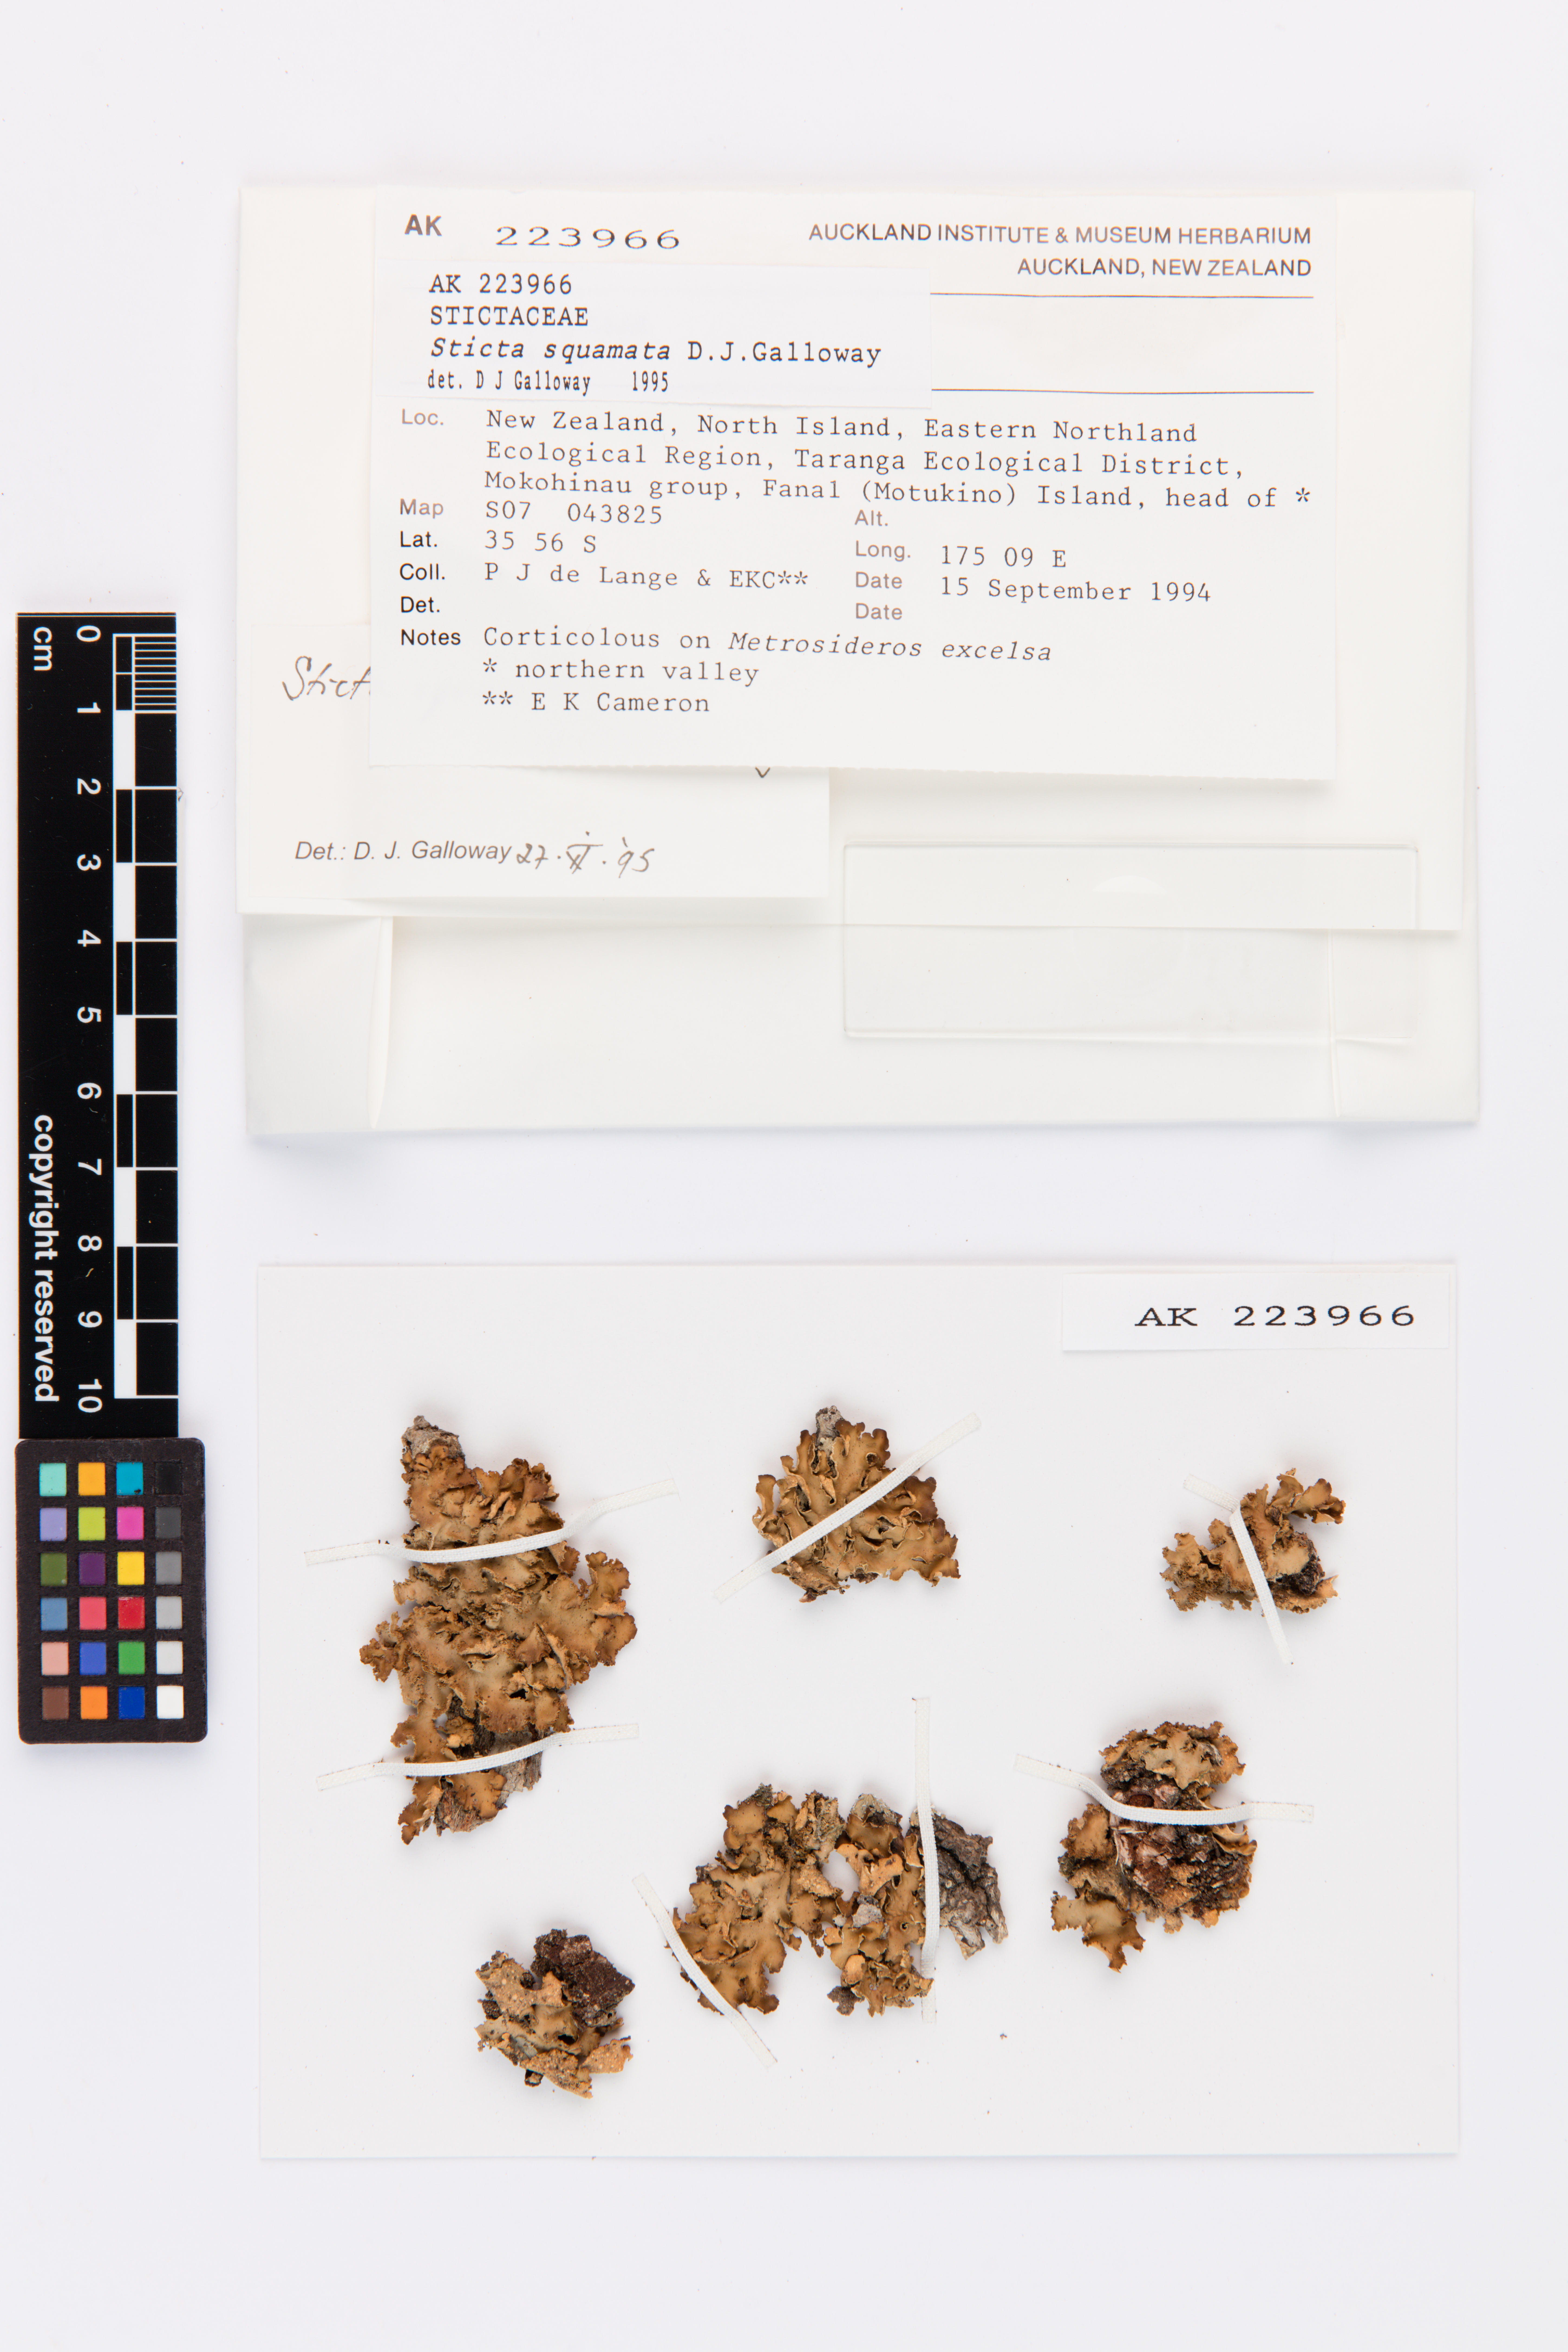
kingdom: Fungi
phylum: Ascomycota
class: Lecanoromycetes
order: Peltigerales
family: Lobariaceae
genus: Sticta
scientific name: Sticta squamata
